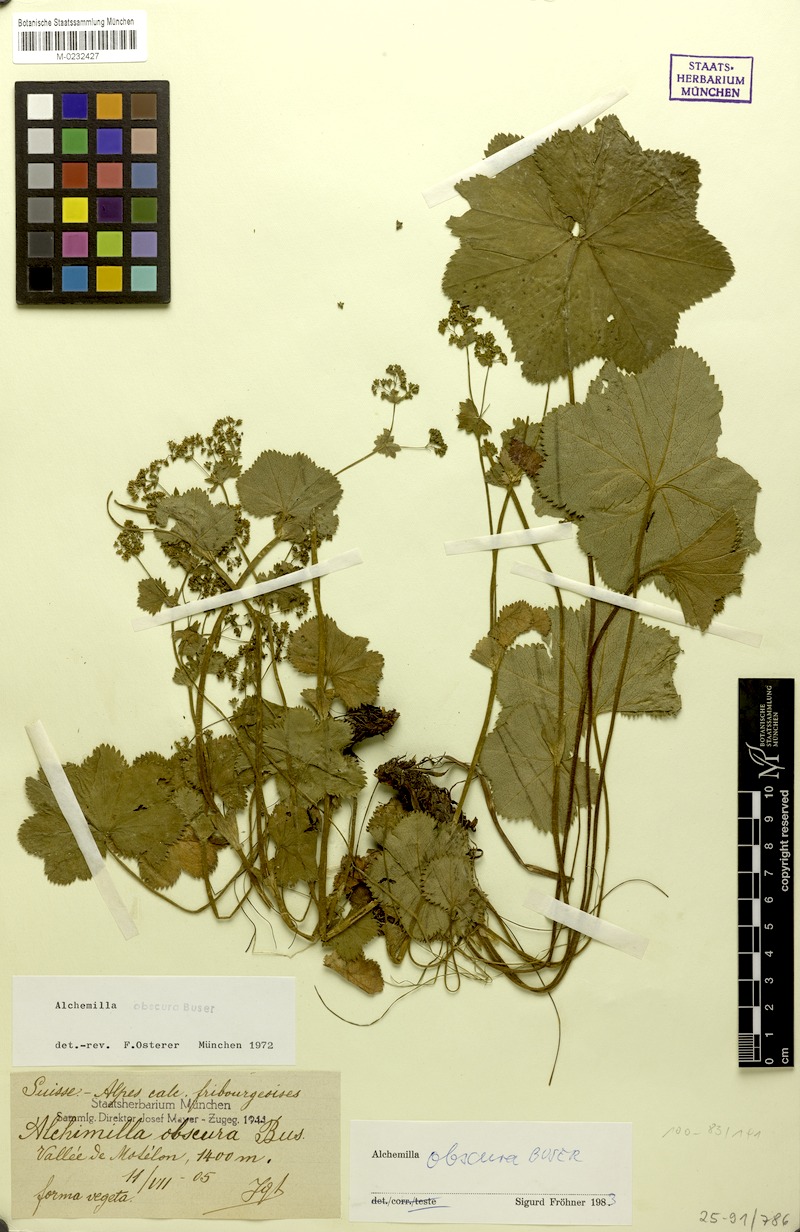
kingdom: Plantae
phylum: Tracheophyta
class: Magnoliopsida
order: Rosales
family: Rosaceae
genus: Alchemilla
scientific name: Alchemilla obscura
